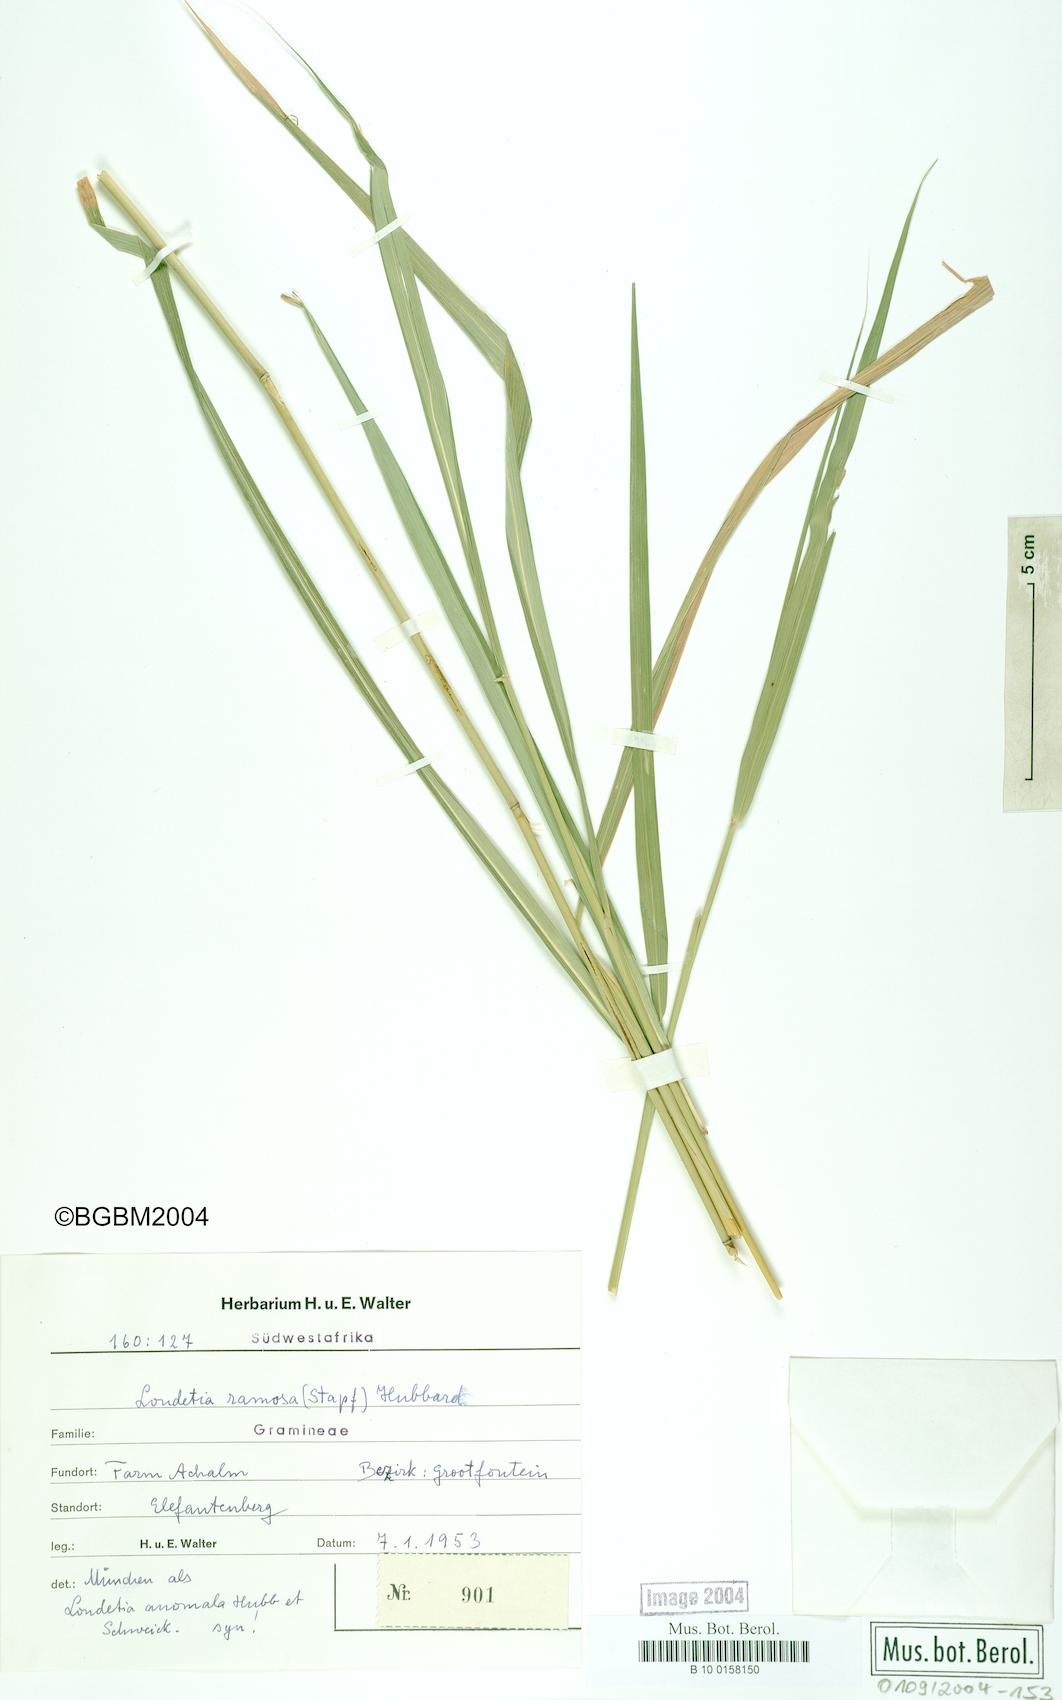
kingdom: Plantae
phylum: Tracheophyta
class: Liliopsida
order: Poales
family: Poaceae
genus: Danthoniopsis
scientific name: Danthoniopsis ramosa
